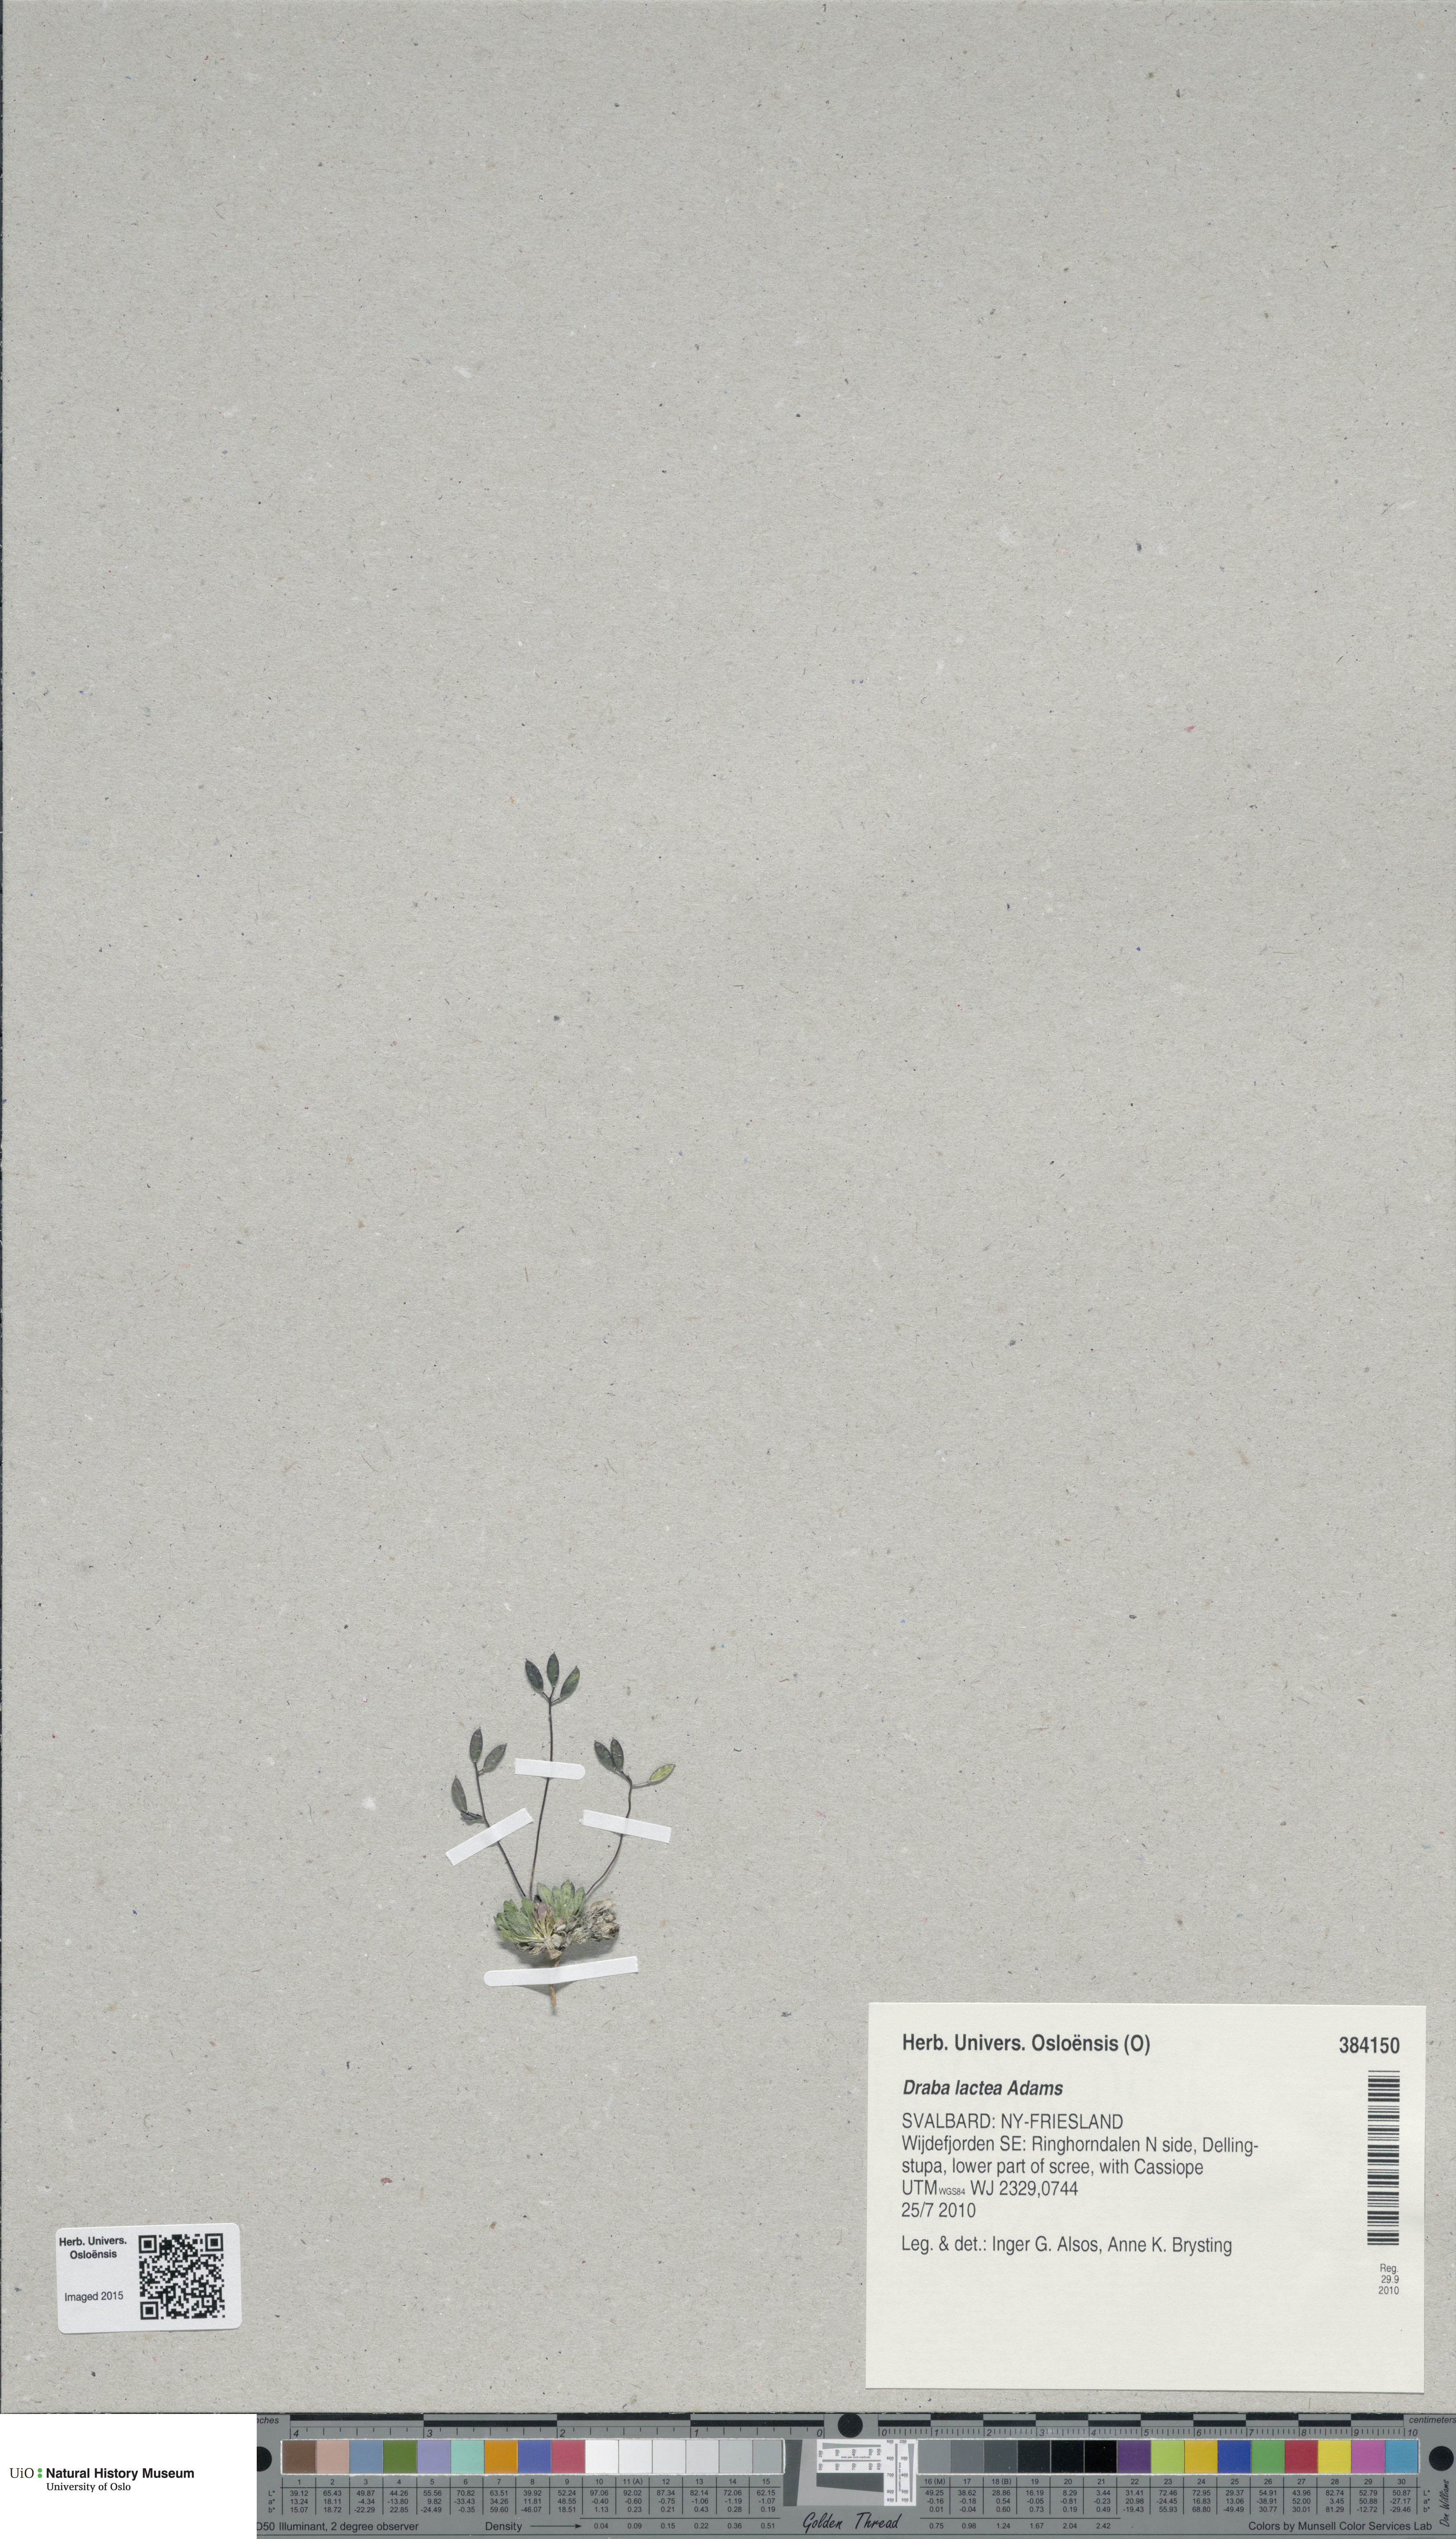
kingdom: Plantae
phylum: Tracheophyta
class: Magnoliopsida
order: Brassicales
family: Brassicaceae
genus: Draba
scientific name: Draba lactea
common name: Milky draba
